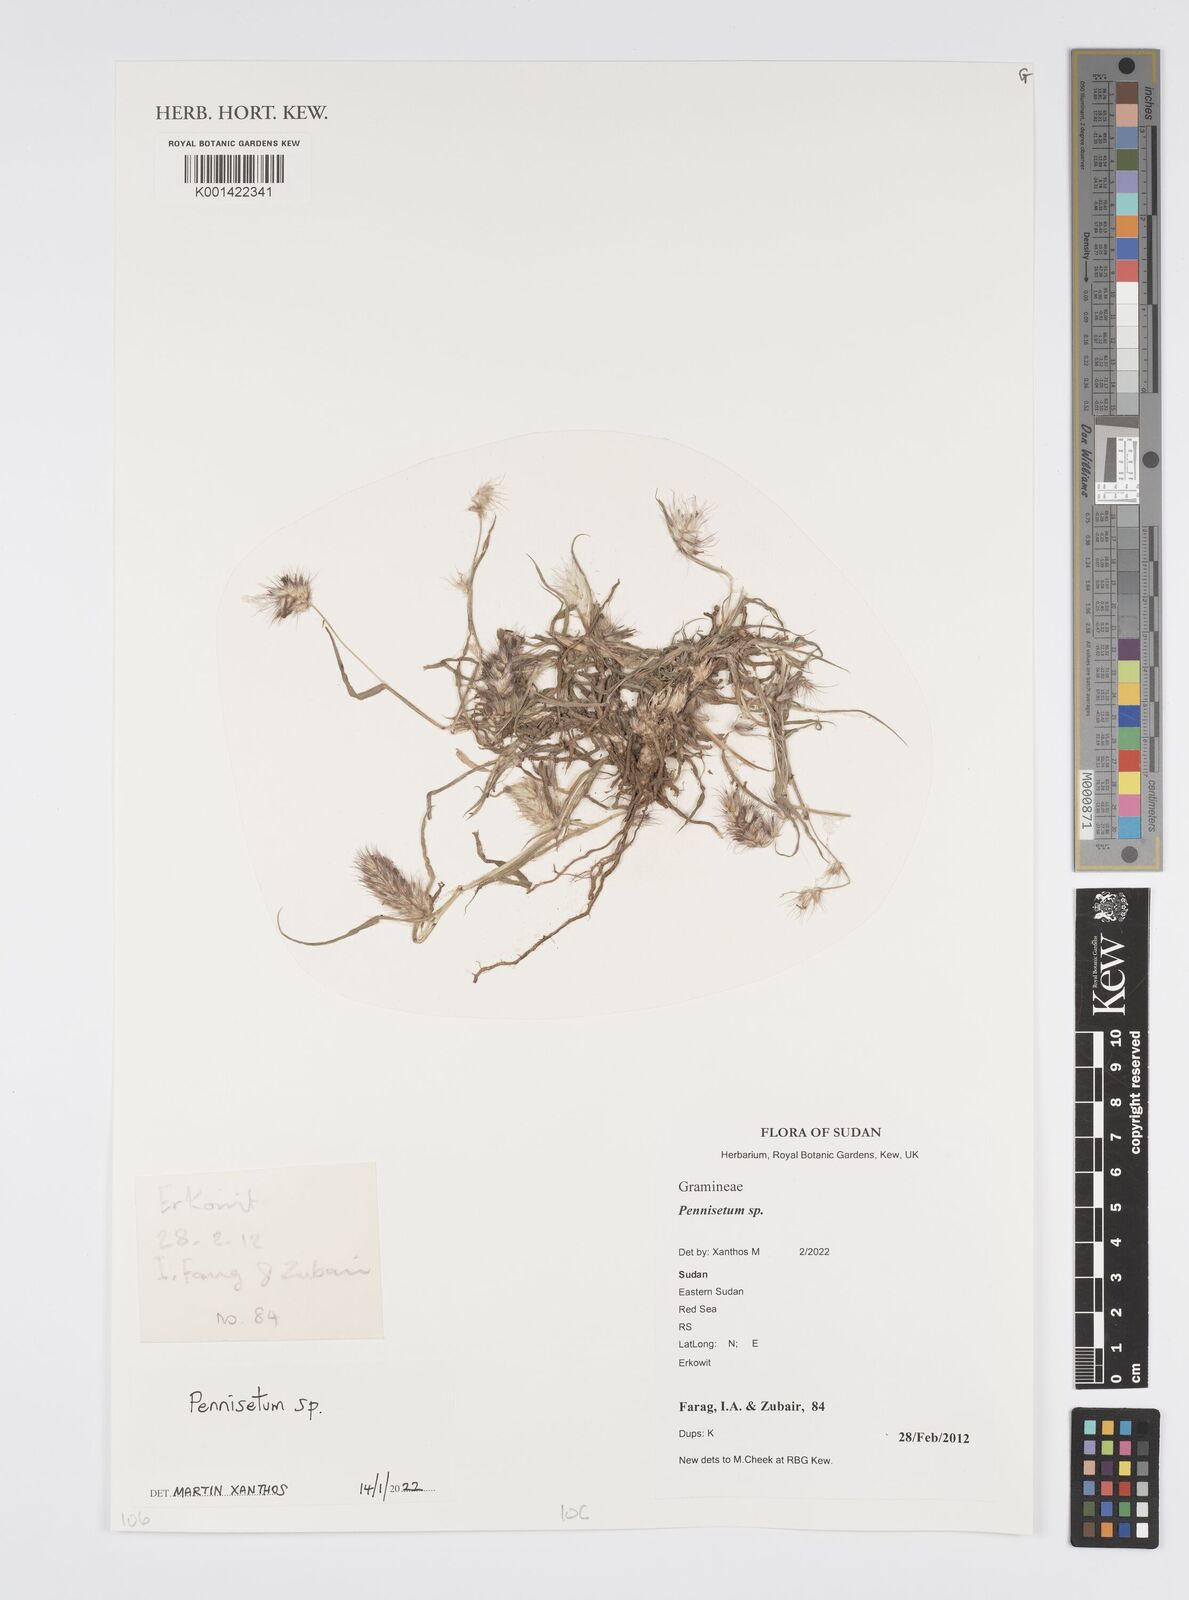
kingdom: Plantae
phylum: Tracheophyta
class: Liliopsida
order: Poales
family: Poaceae
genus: Cenchrus
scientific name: Cenchrus Pennisetum spec
